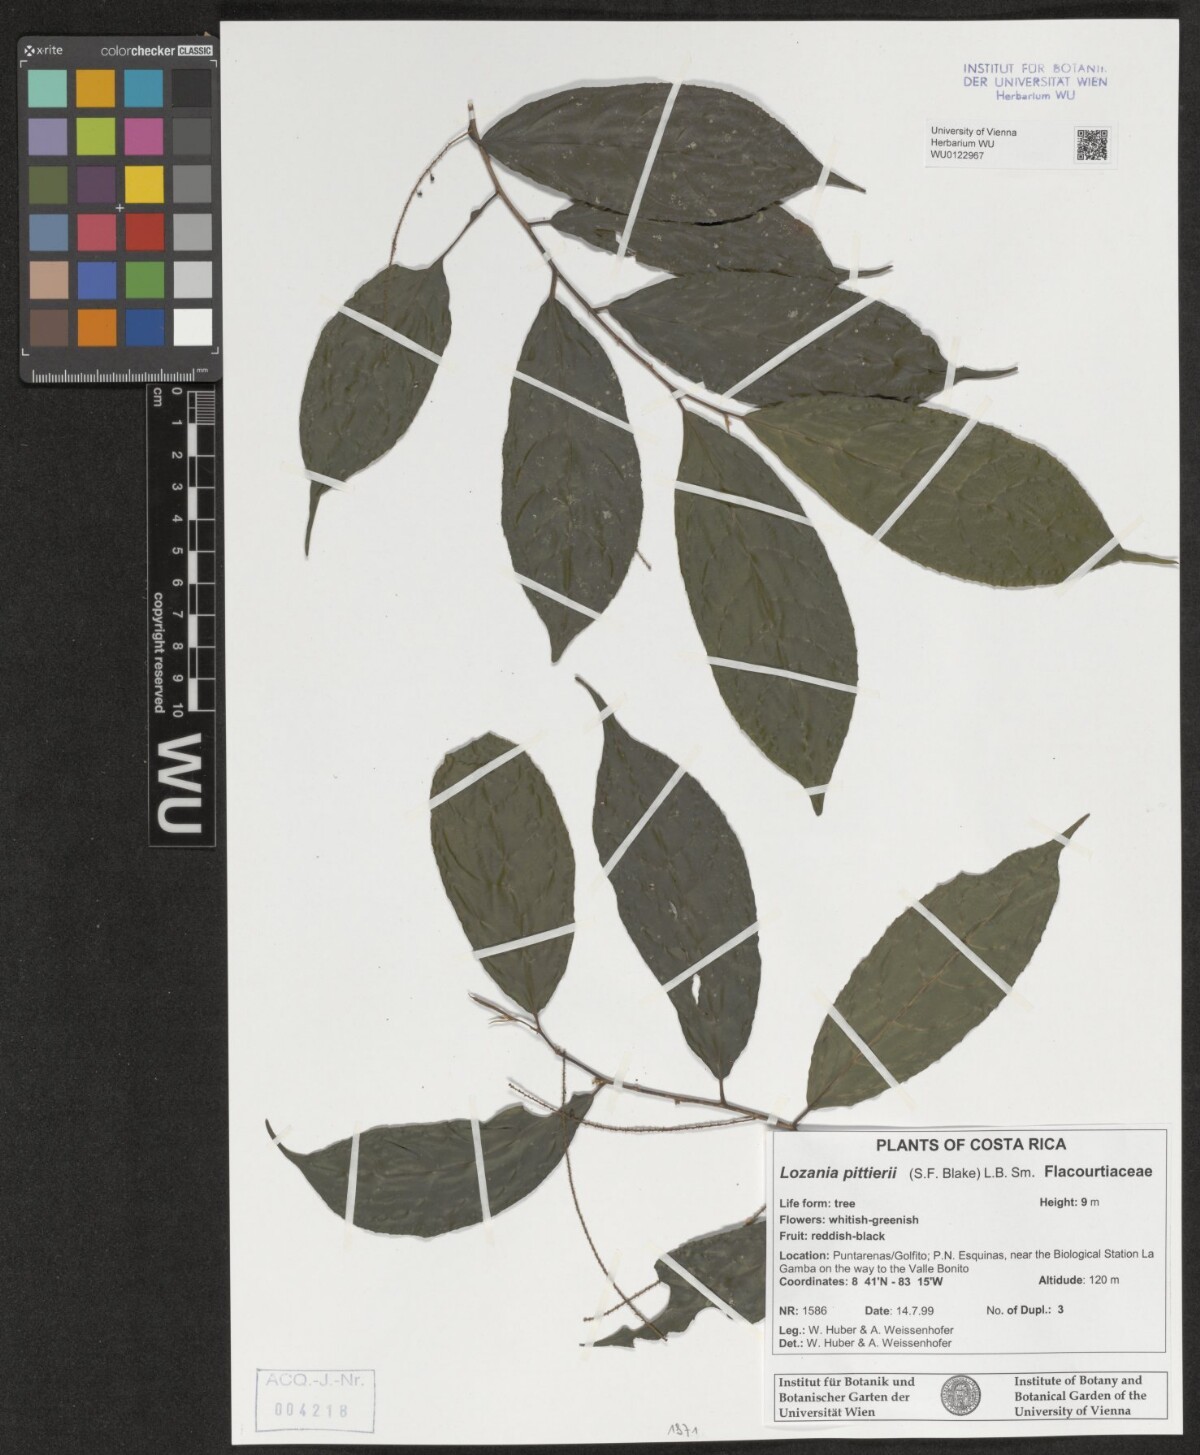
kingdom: Plantae
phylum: Tracheophyta
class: Magnoliopsida
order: Malpighiales
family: Lacistemataceae
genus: Lozania
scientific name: Lozania pittieri
